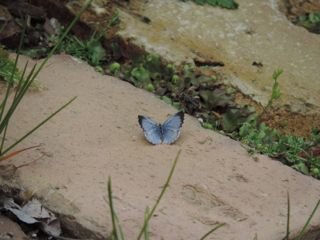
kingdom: Animalia
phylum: Arthropoda
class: Insecta
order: Lepidoptera
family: Lycaenidae
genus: Celastrina
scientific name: Celastrina
